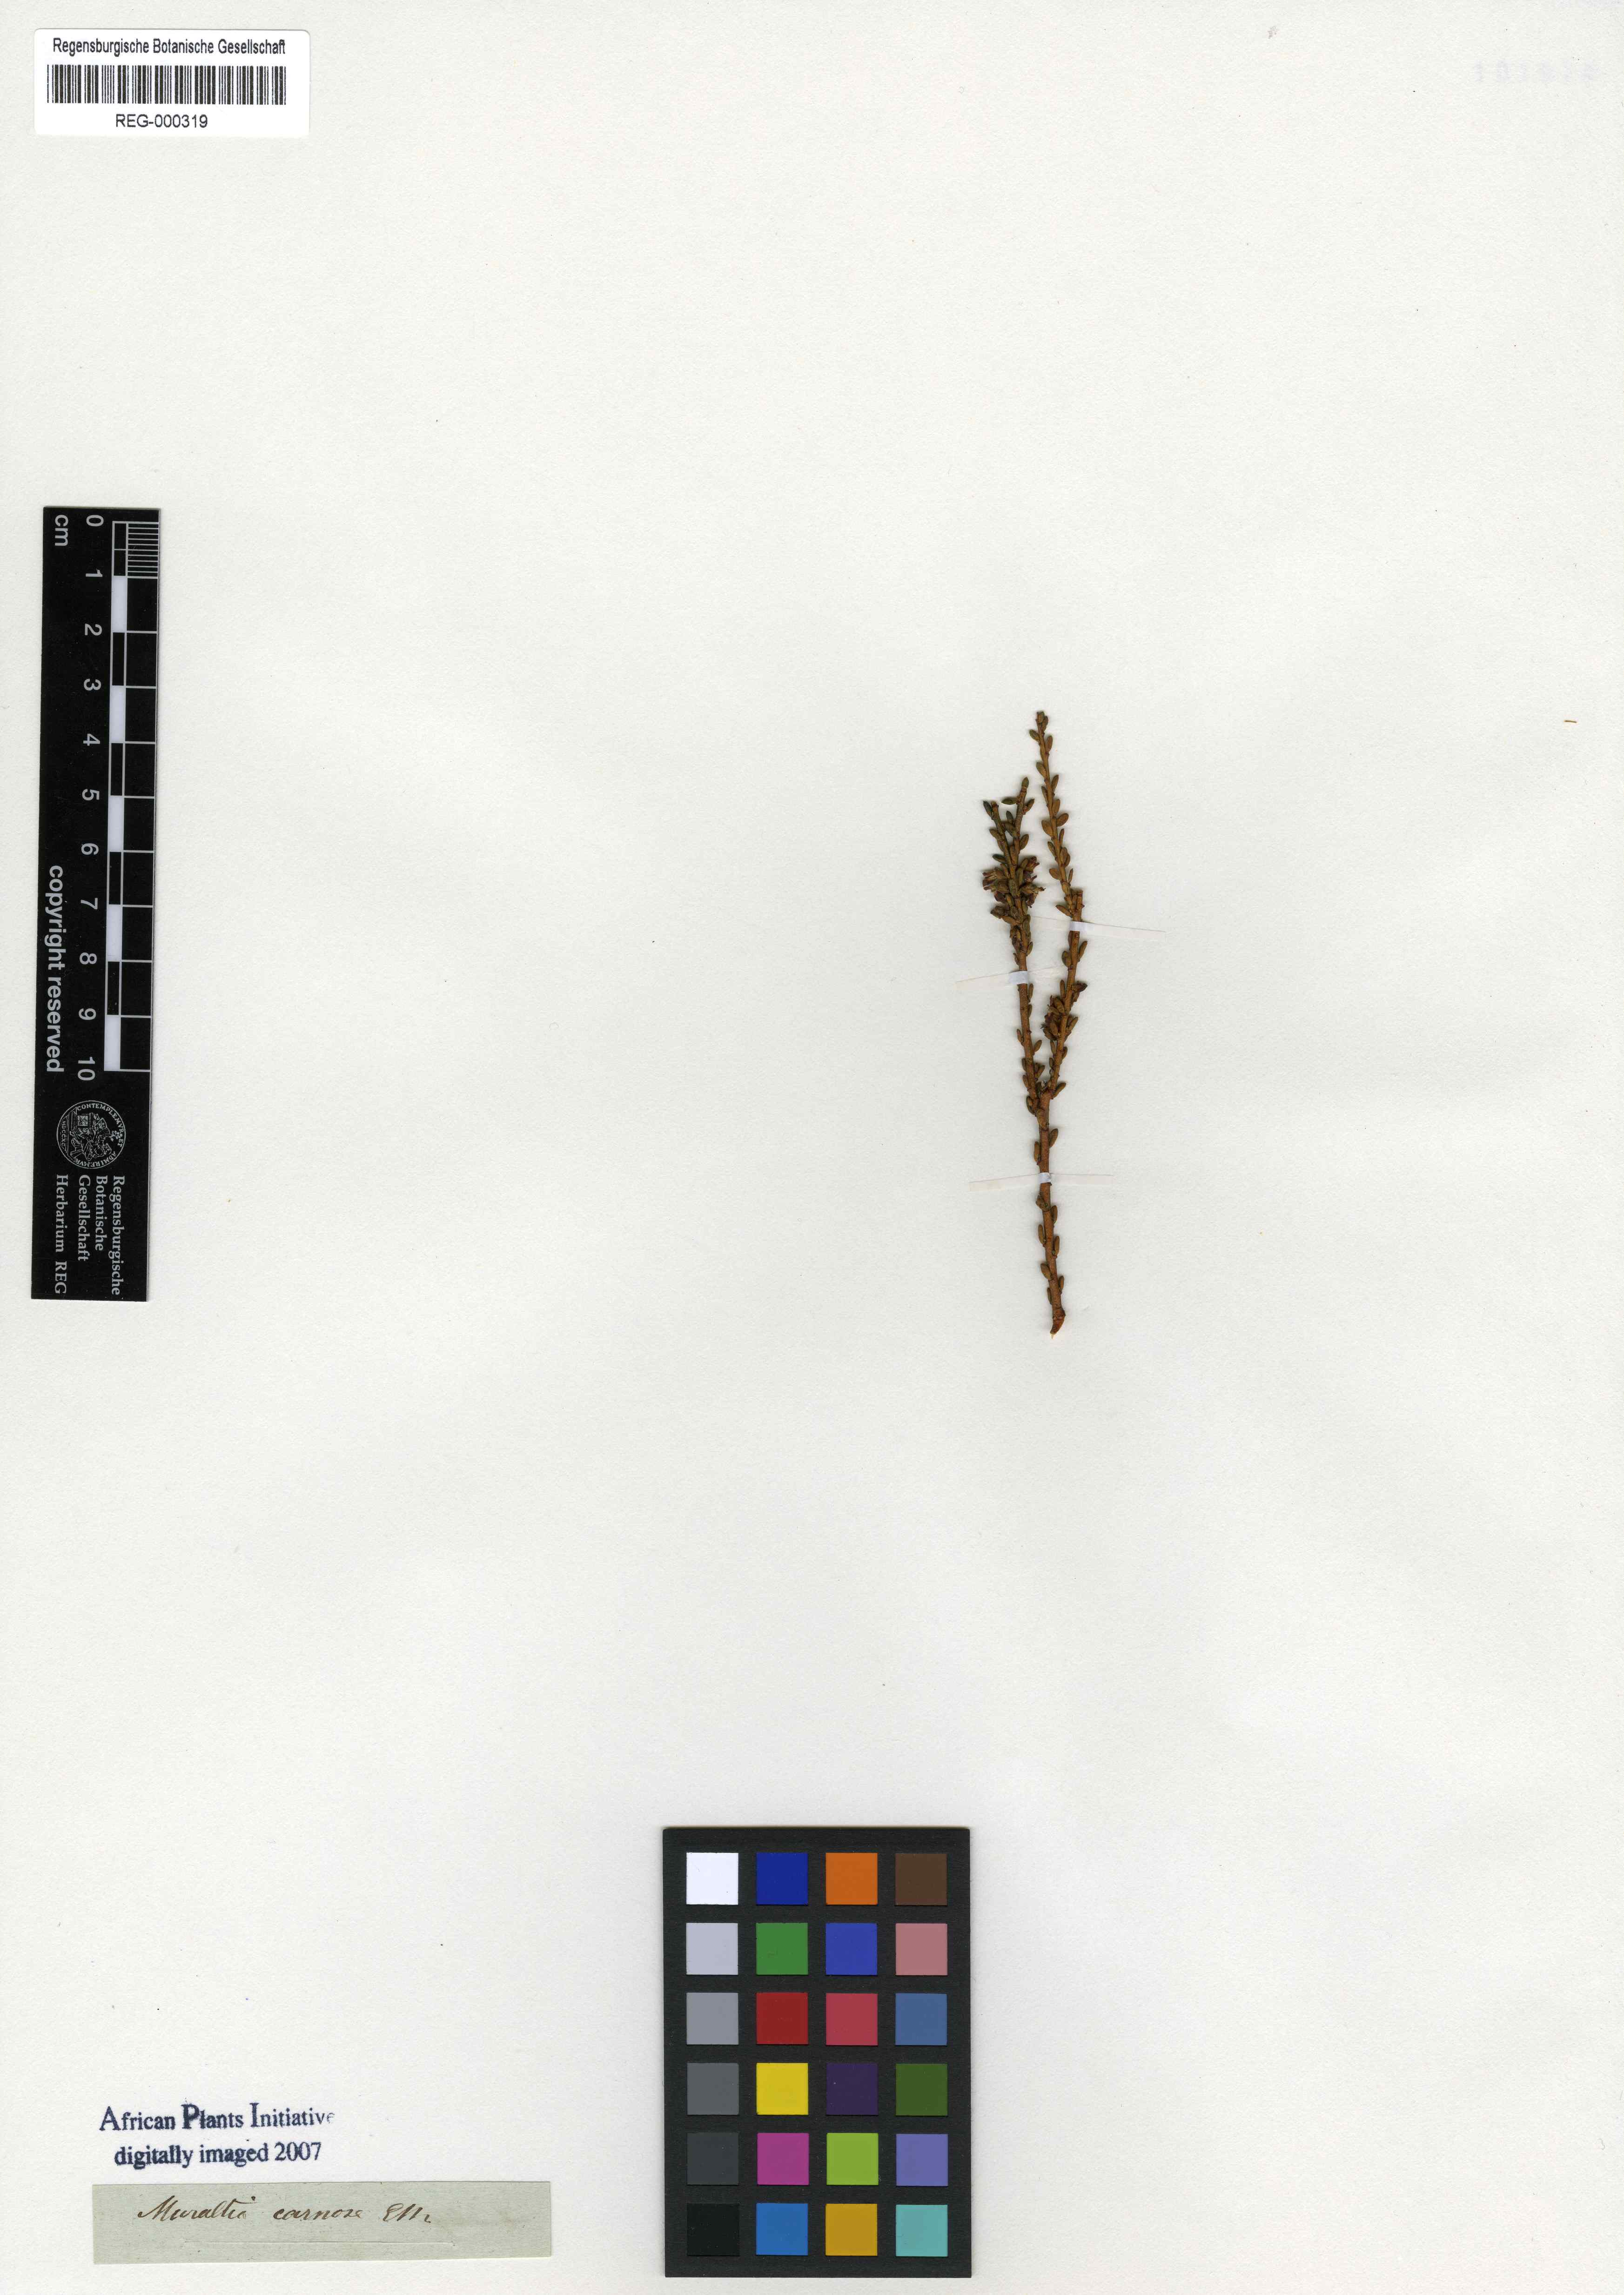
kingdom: Plantae
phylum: Tracheophyta
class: Magnoliopsida
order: Fabales
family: Polygalaceae
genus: Muraltia
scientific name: Muraltia carnosa
